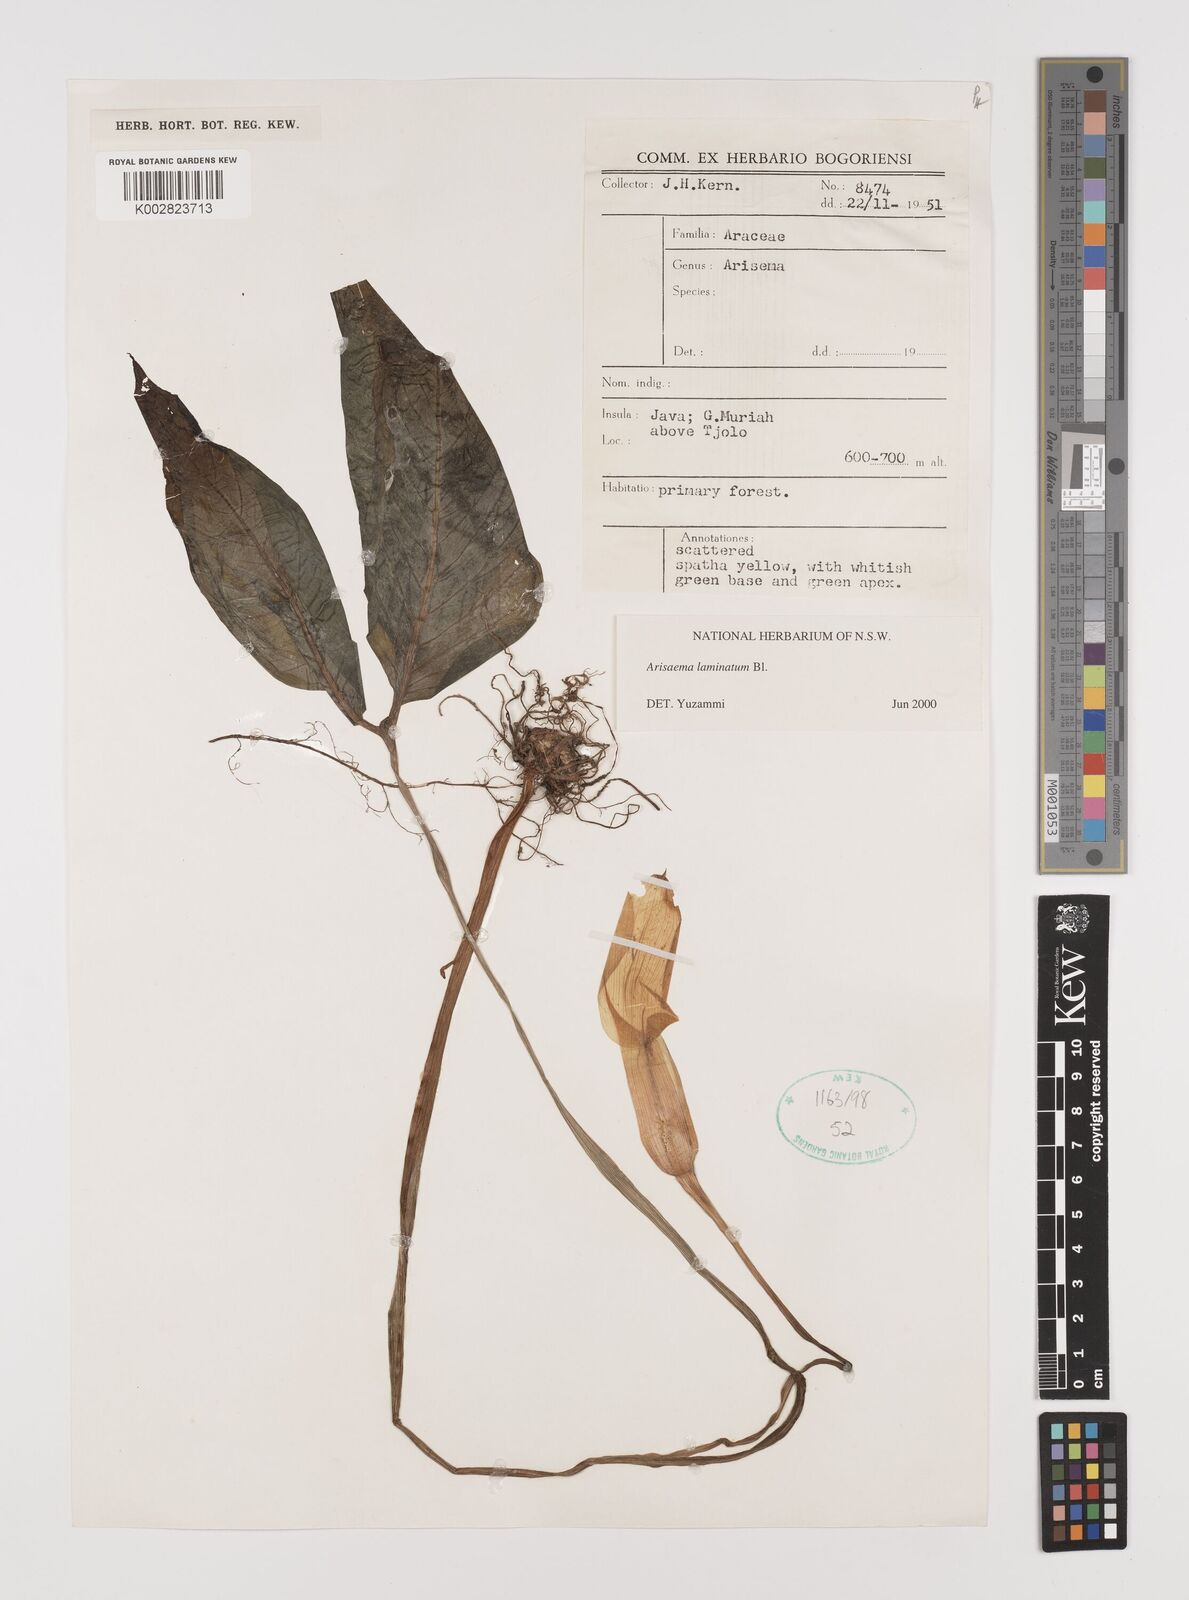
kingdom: Plantae
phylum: Tracheophyta
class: Liliopsida
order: Alismatales
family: Araceae
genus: Arisaema
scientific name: Arisaema laminatum
